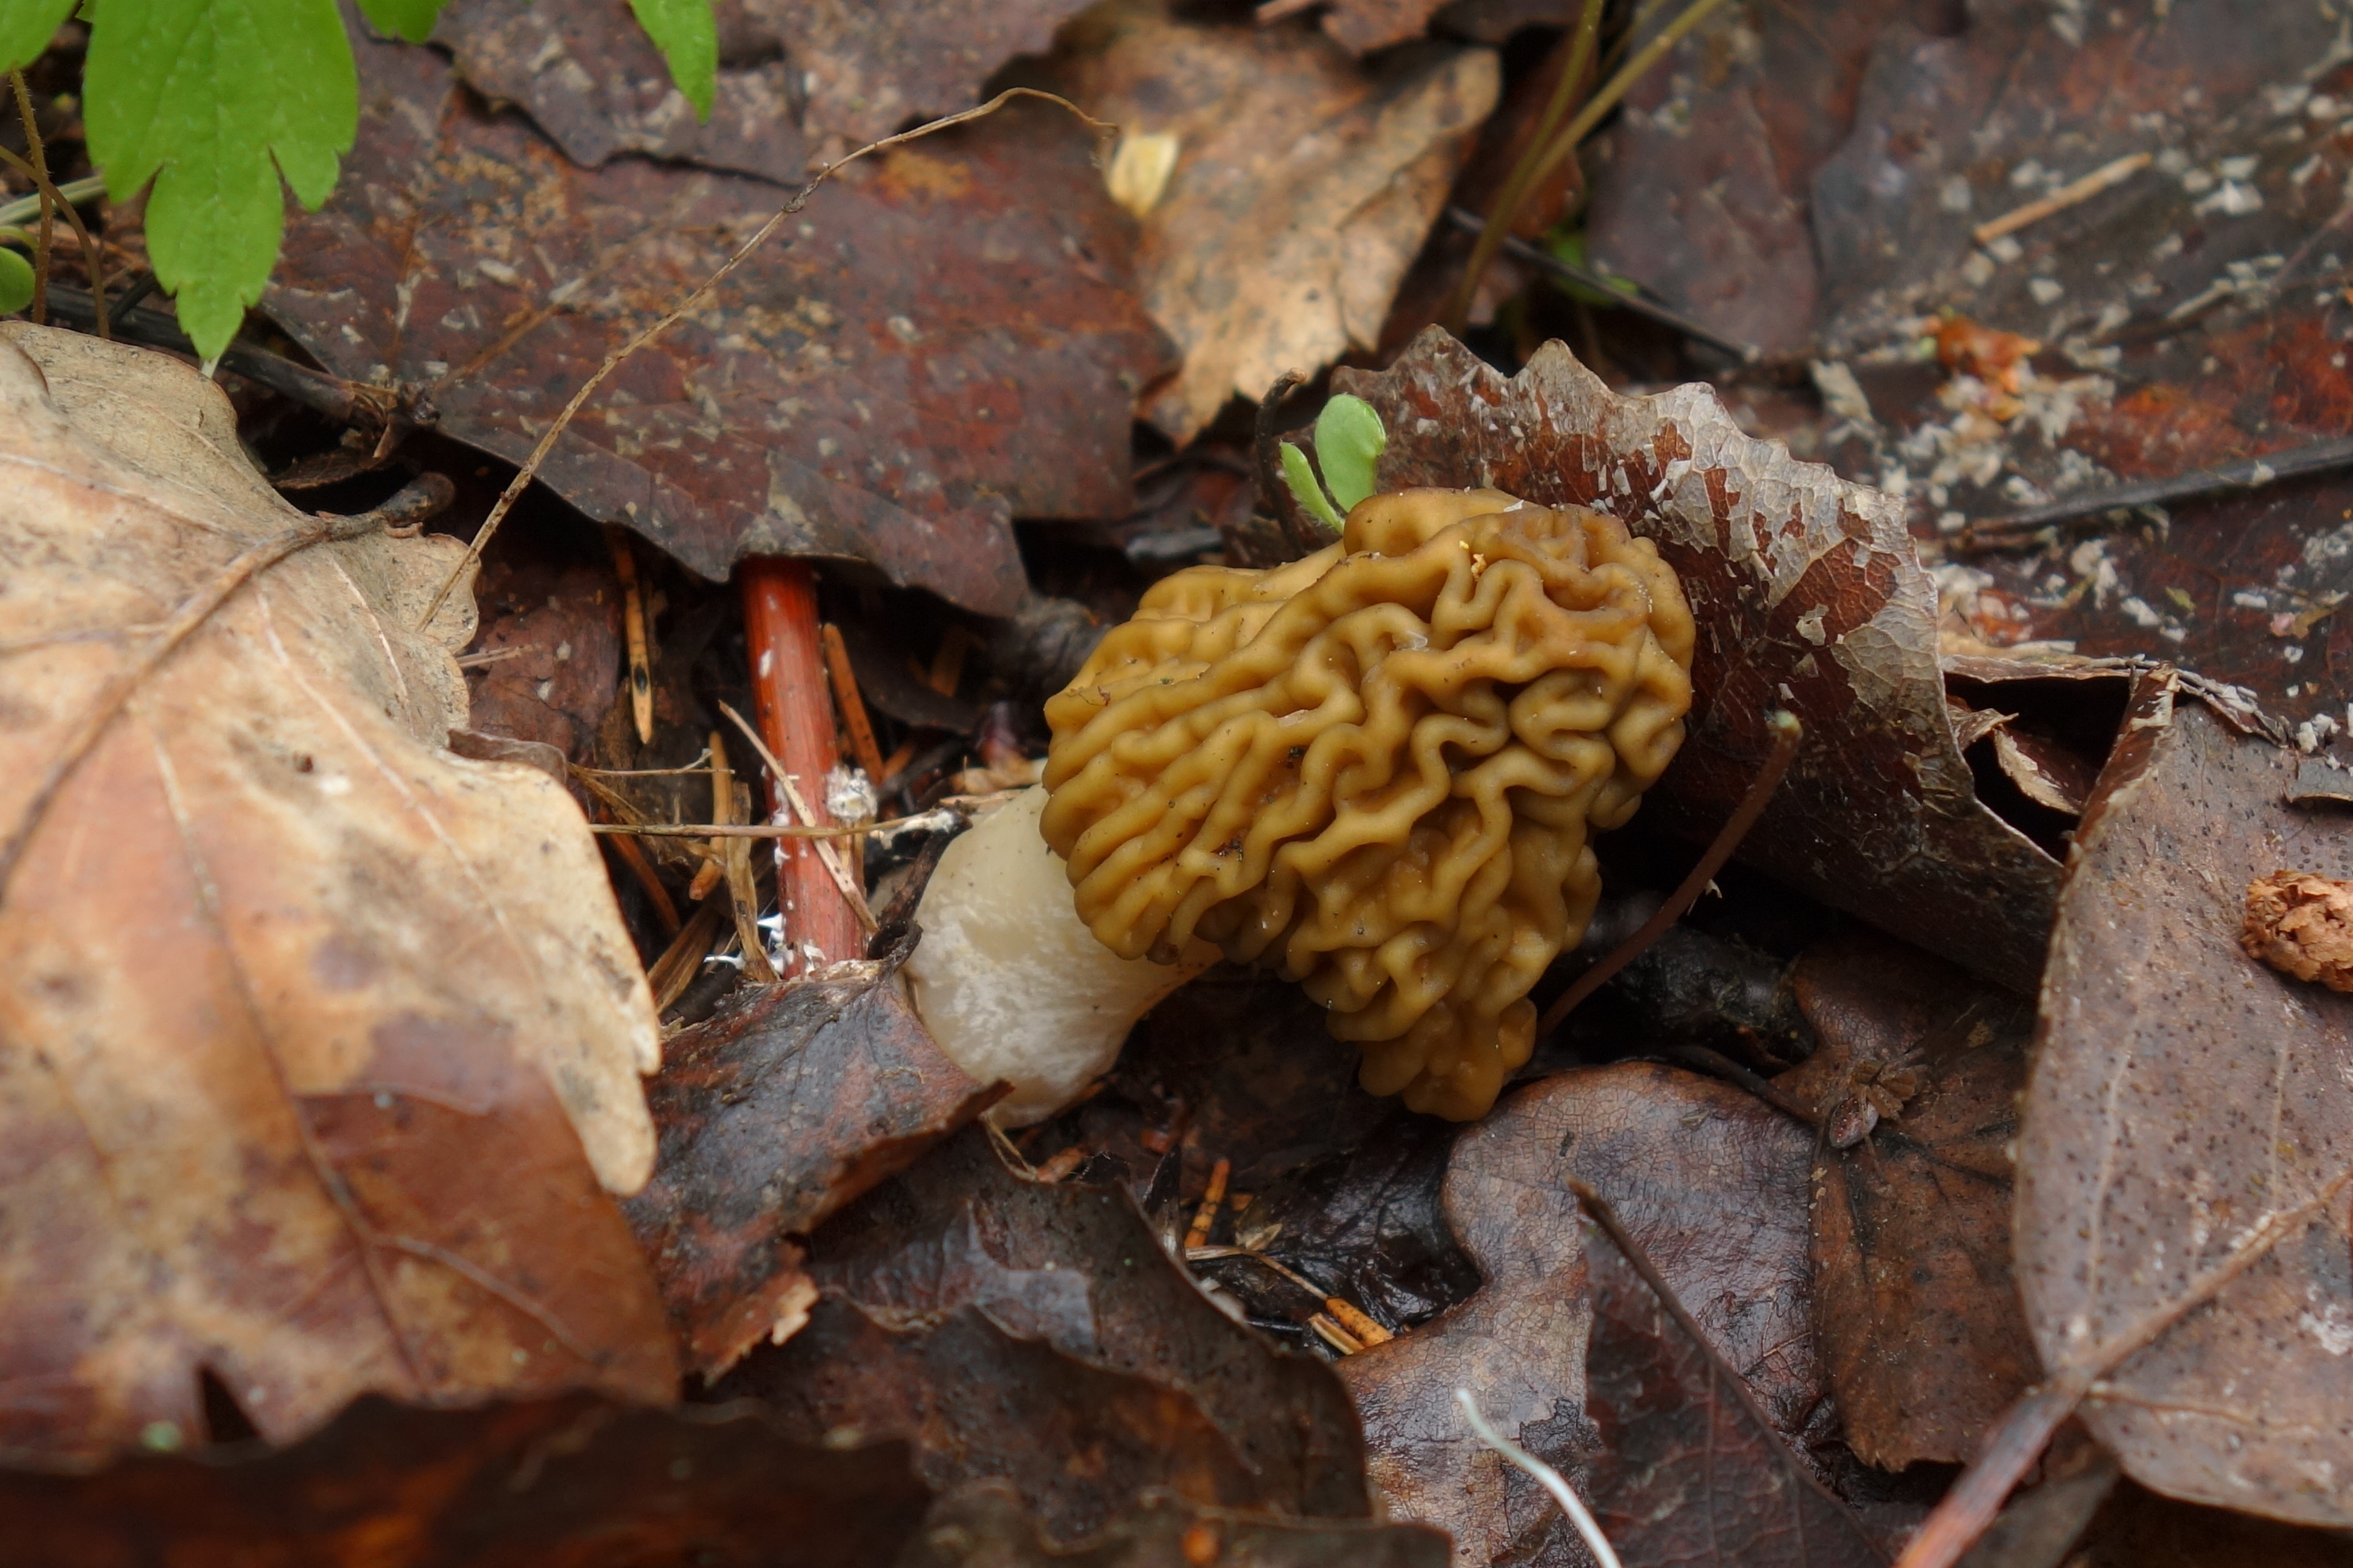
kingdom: Fungi
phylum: Ascomycota
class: Pezizomycetes
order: Pezizales
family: Morchellaceae
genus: Verpa
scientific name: Verpa bohemica
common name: Wrinkled thimble morel
